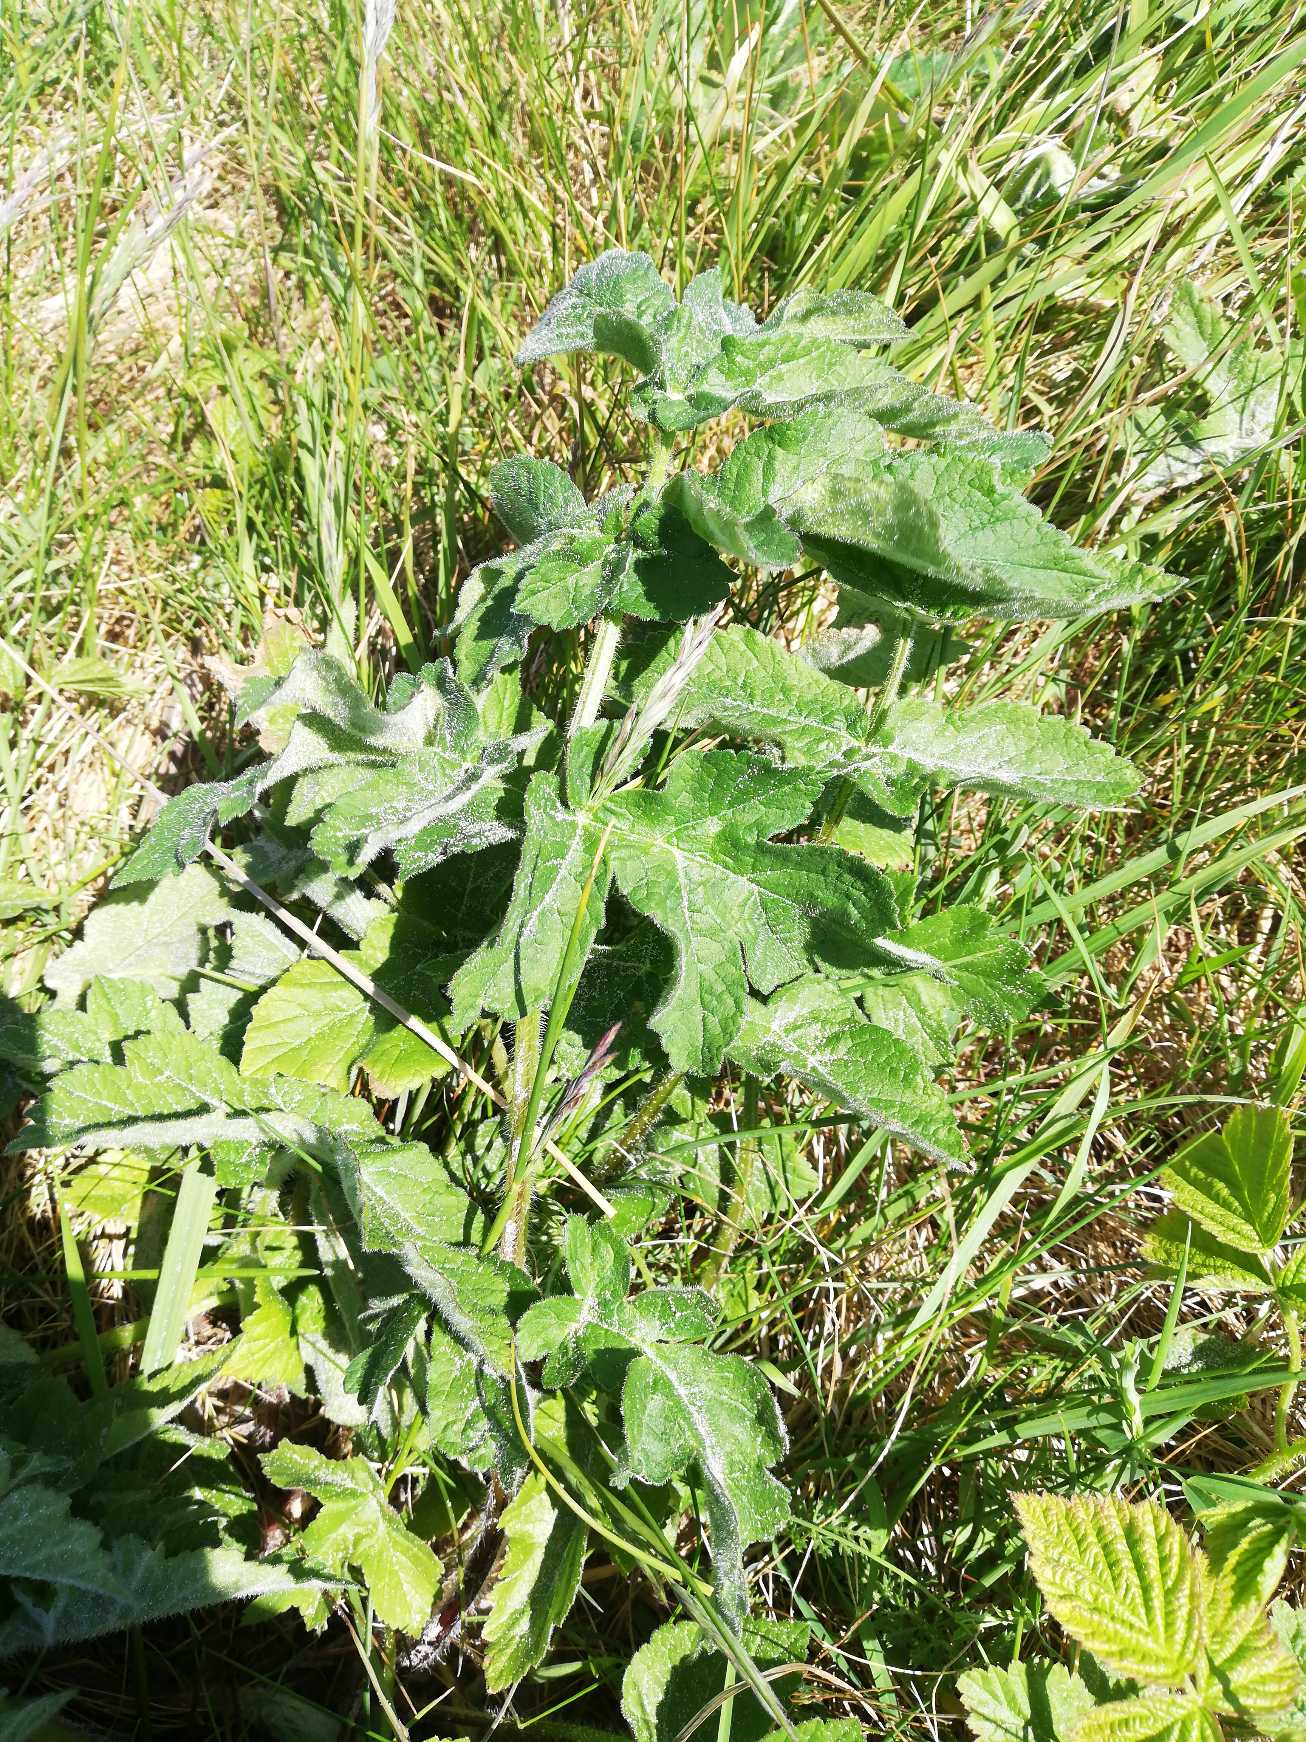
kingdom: Plantae
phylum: Tracheophyta
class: Magnoliopsida
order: Apiales
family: Apiaceae
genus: Heracleum
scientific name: Heracleum sphondylium
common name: Almindelig bjørneklo
